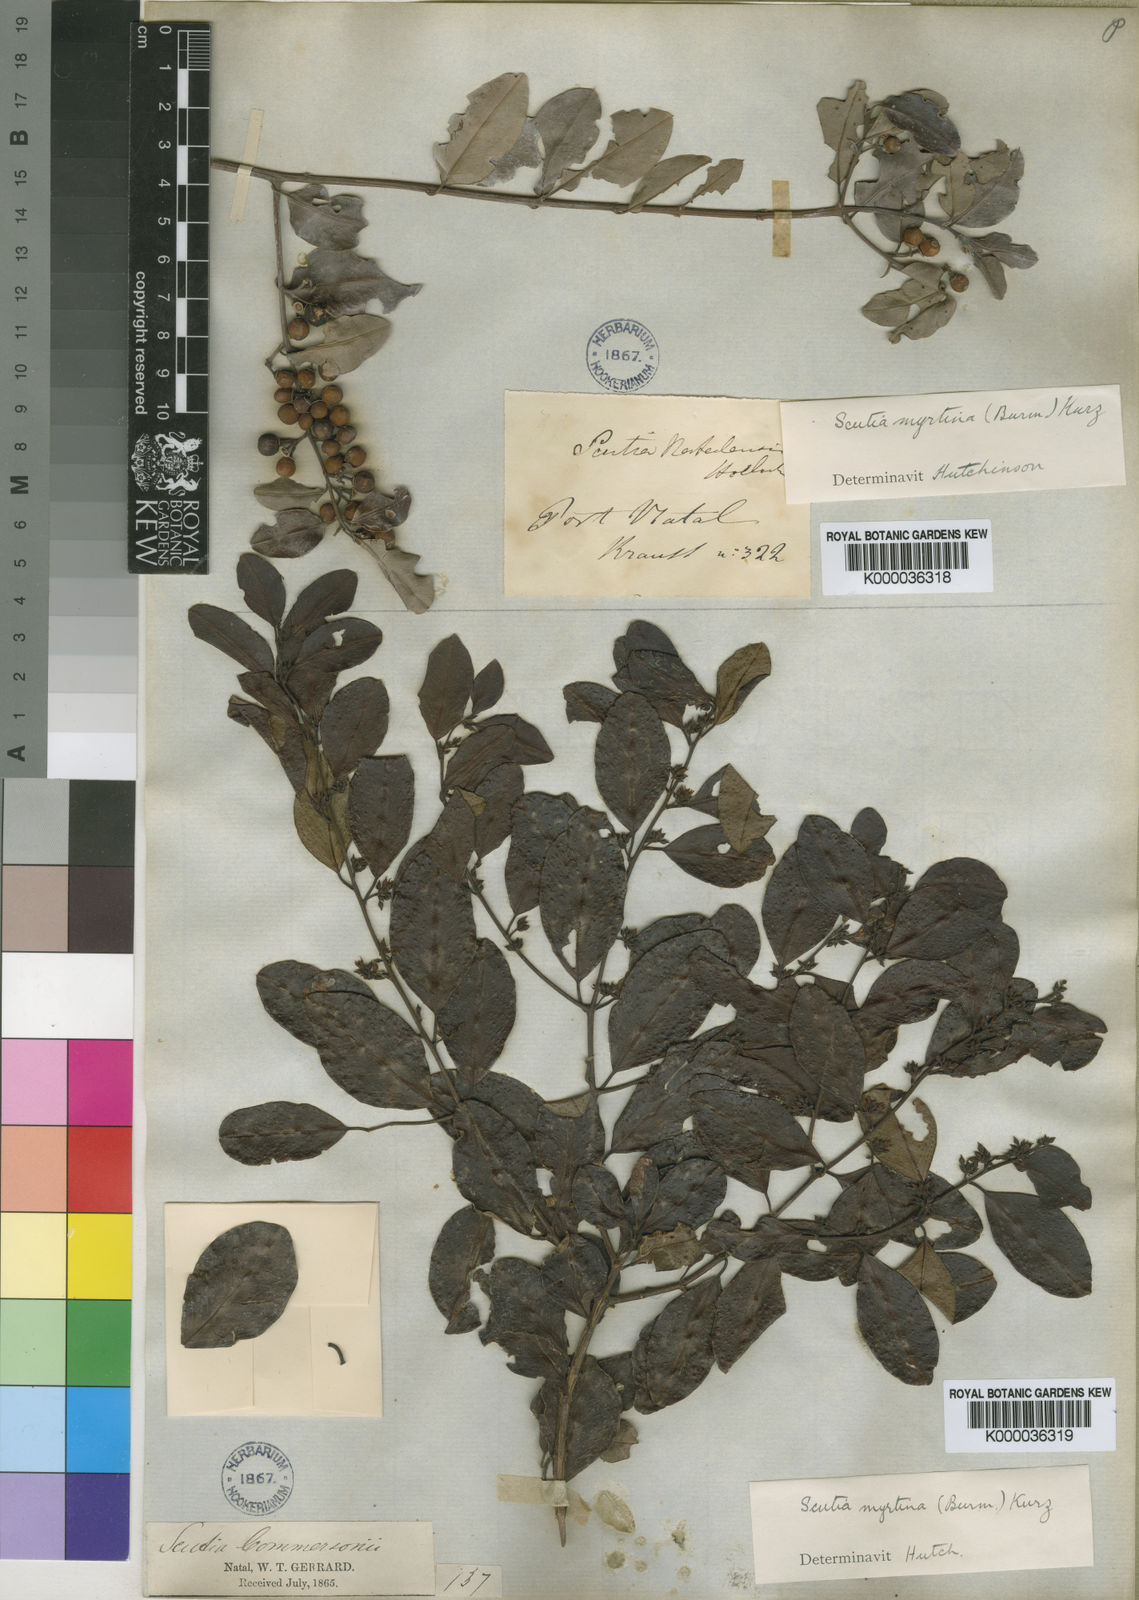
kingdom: Plantae
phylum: Tracheophyta
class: Magnoliopsida
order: Rosales
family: Rhamnaceae
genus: Scutia
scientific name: Scutia myrtina
